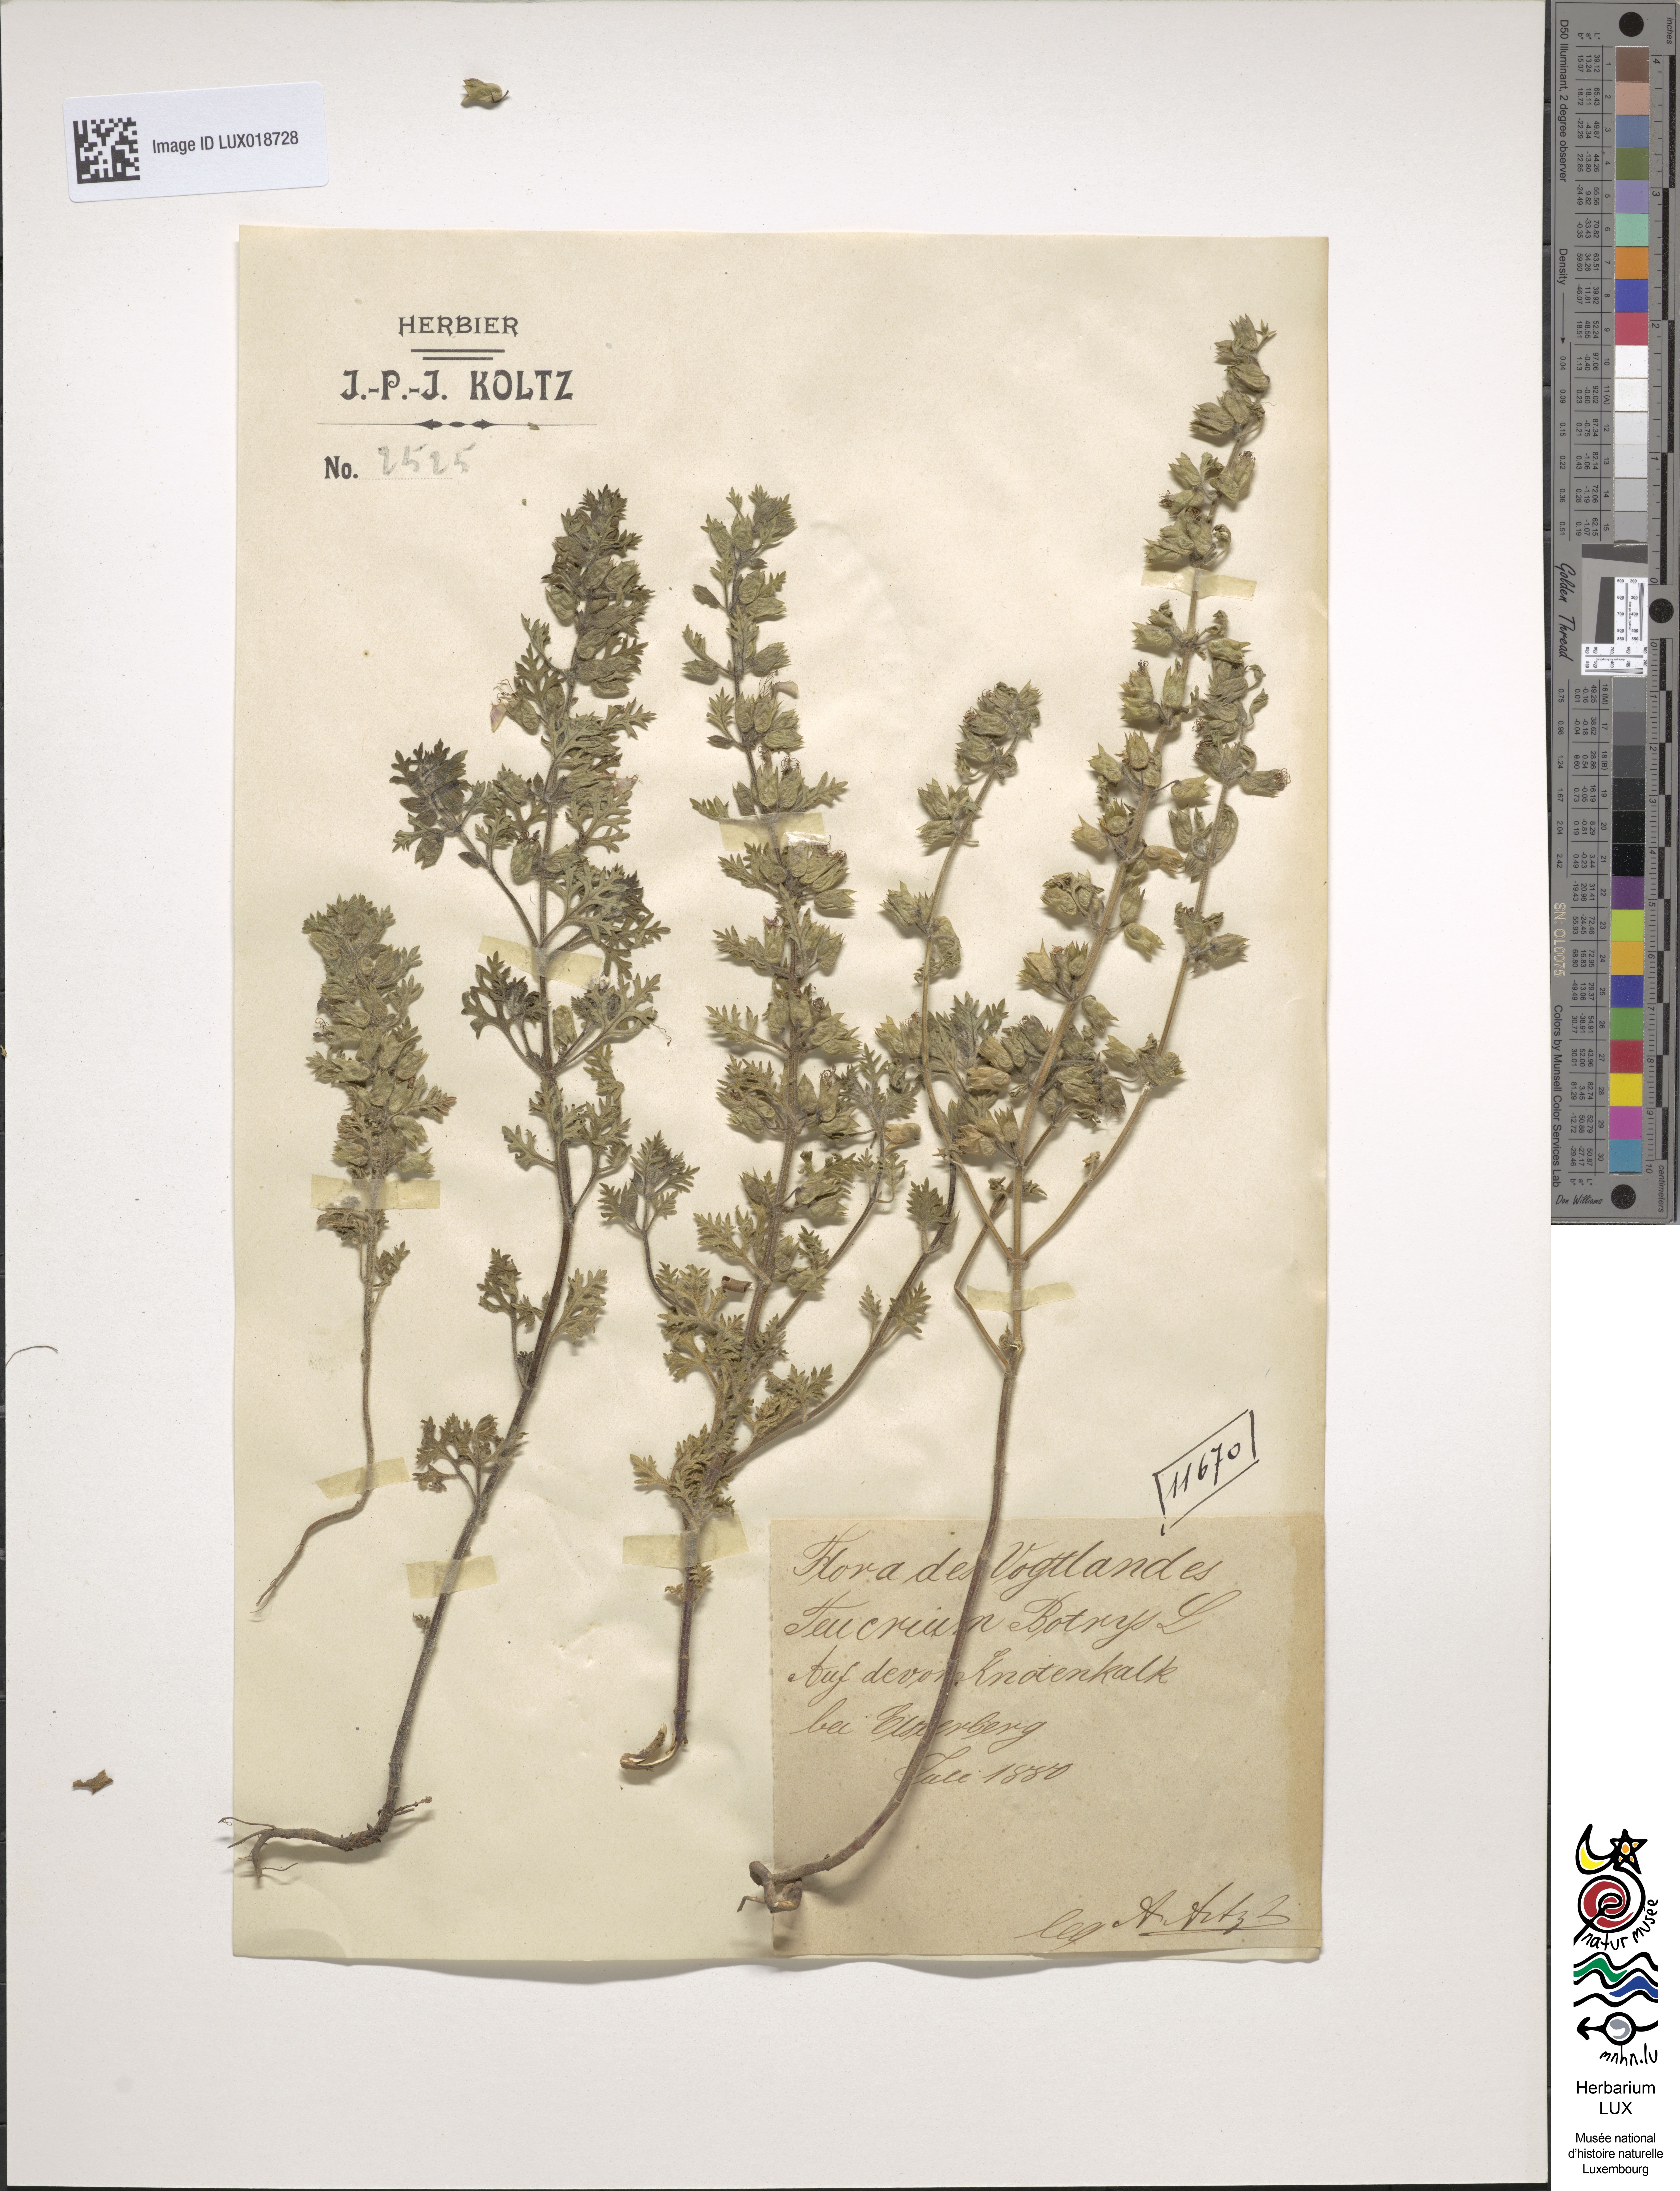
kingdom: Plantae
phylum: Tracheophyta
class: Magnoliopsida
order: Lamiales
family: Lamiaceae
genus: Teucrium
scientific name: Teucrium botrys
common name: Cut-leaved germander
